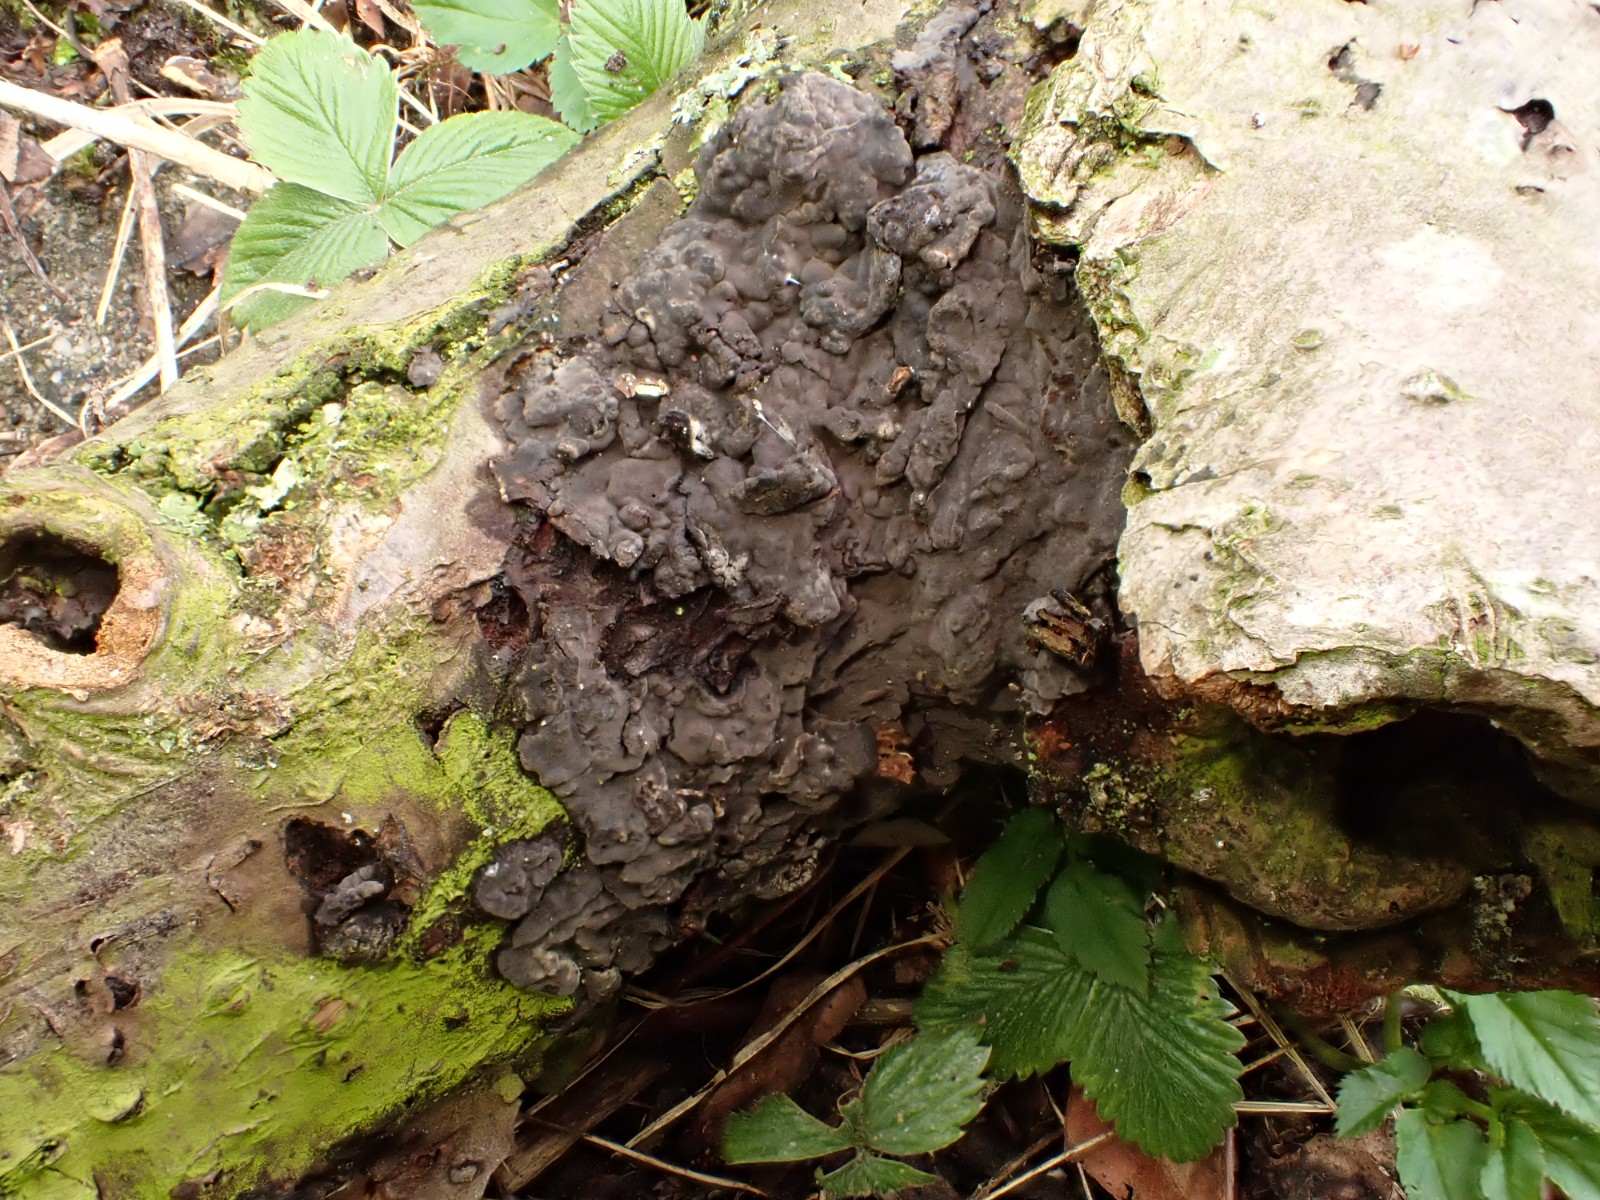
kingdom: Fungi
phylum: Basidiomycota
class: Agaricomycetes
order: Russulales
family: Peniophoraceae
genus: Peniophora
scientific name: Peniophora rufomarginata
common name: linde-voksskind
